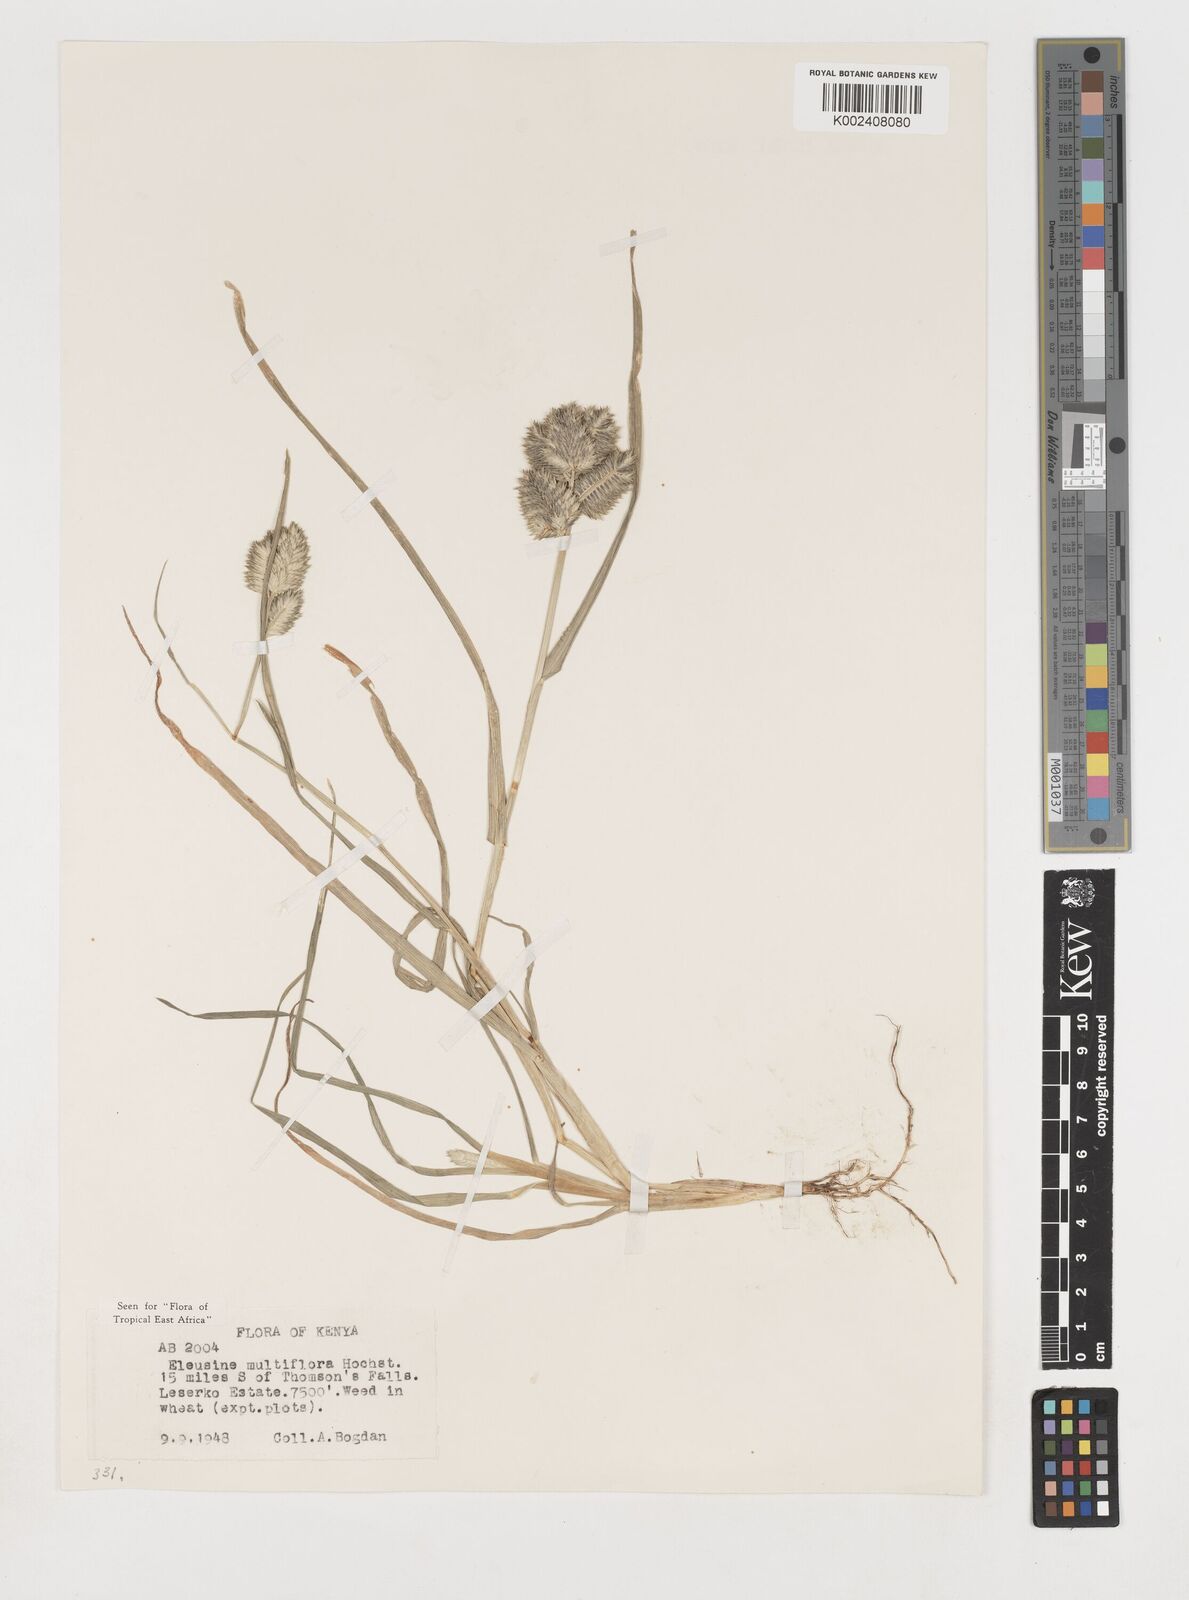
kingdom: Plantae
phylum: Tracheophyta
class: Liliopsida
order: Poales
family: Poaceae
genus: Eleusine
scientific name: Eleusine multiflora
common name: Fat-spiked yard-grass
